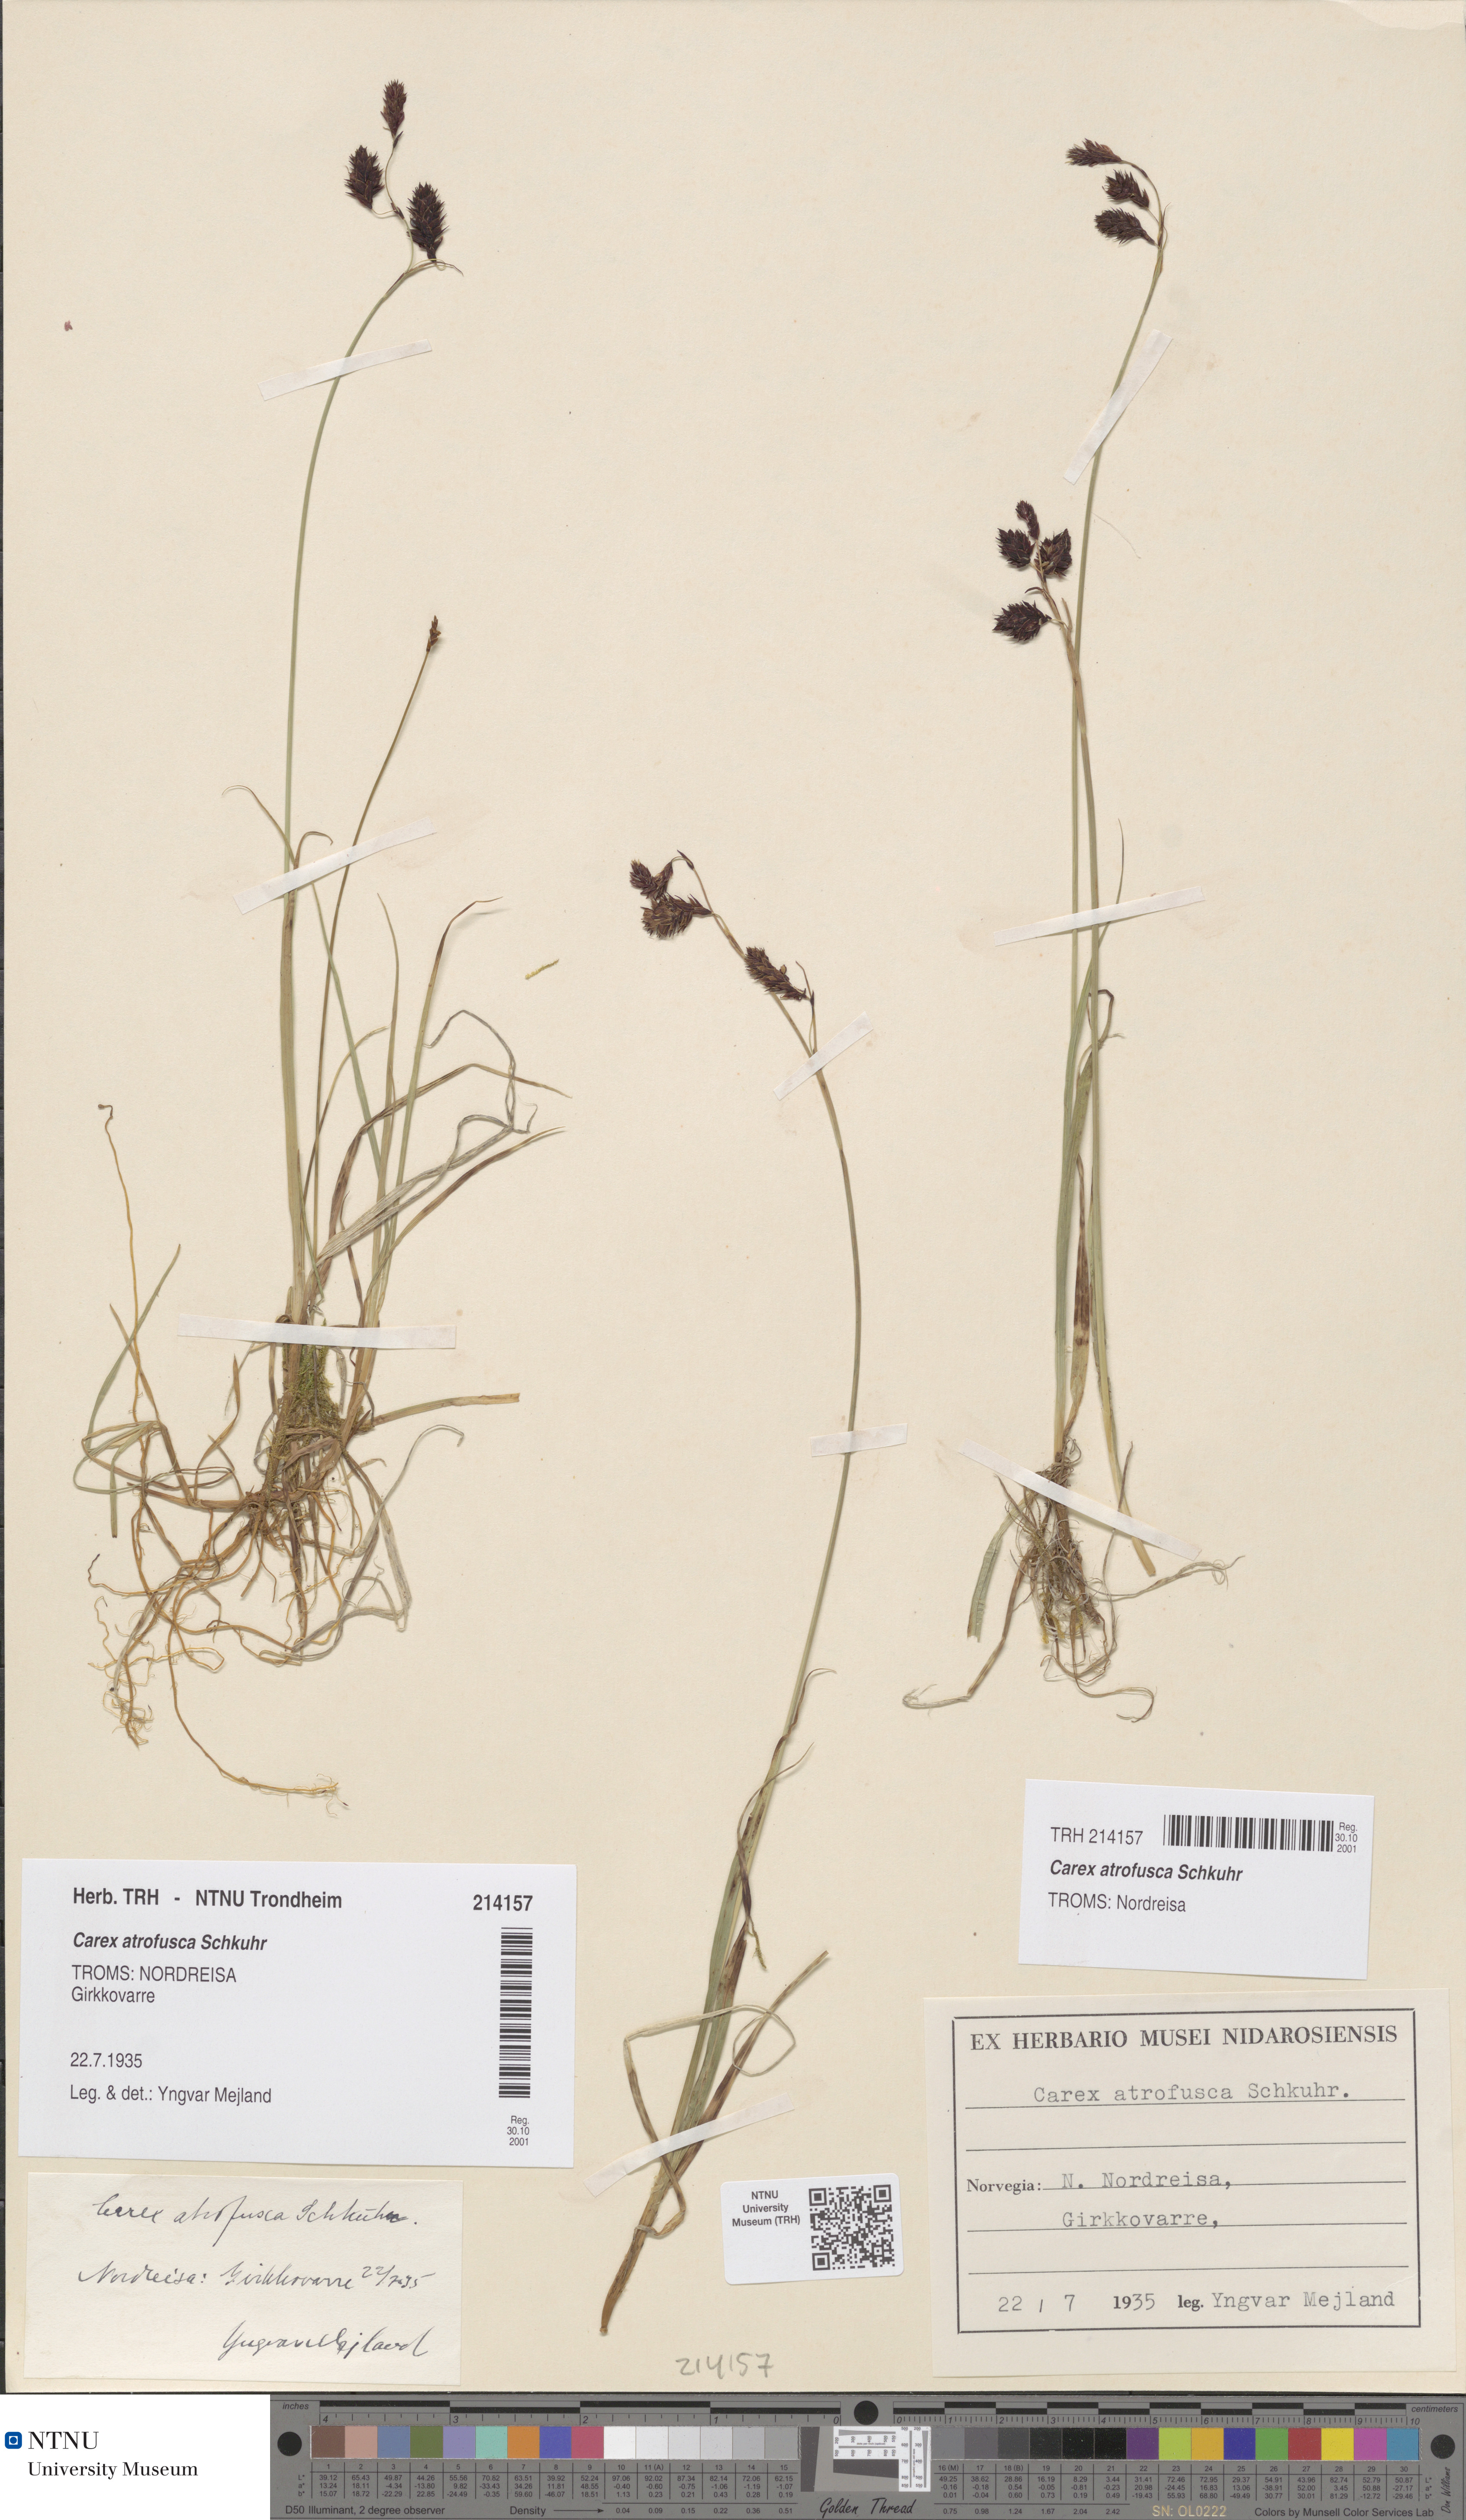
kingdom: Plantae
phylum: Tracheophyta
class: Liliopsida
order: Poales
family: Cyperaceae
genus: Carex
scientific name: Carex atrofusca
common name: Scorched alpine-sedge
